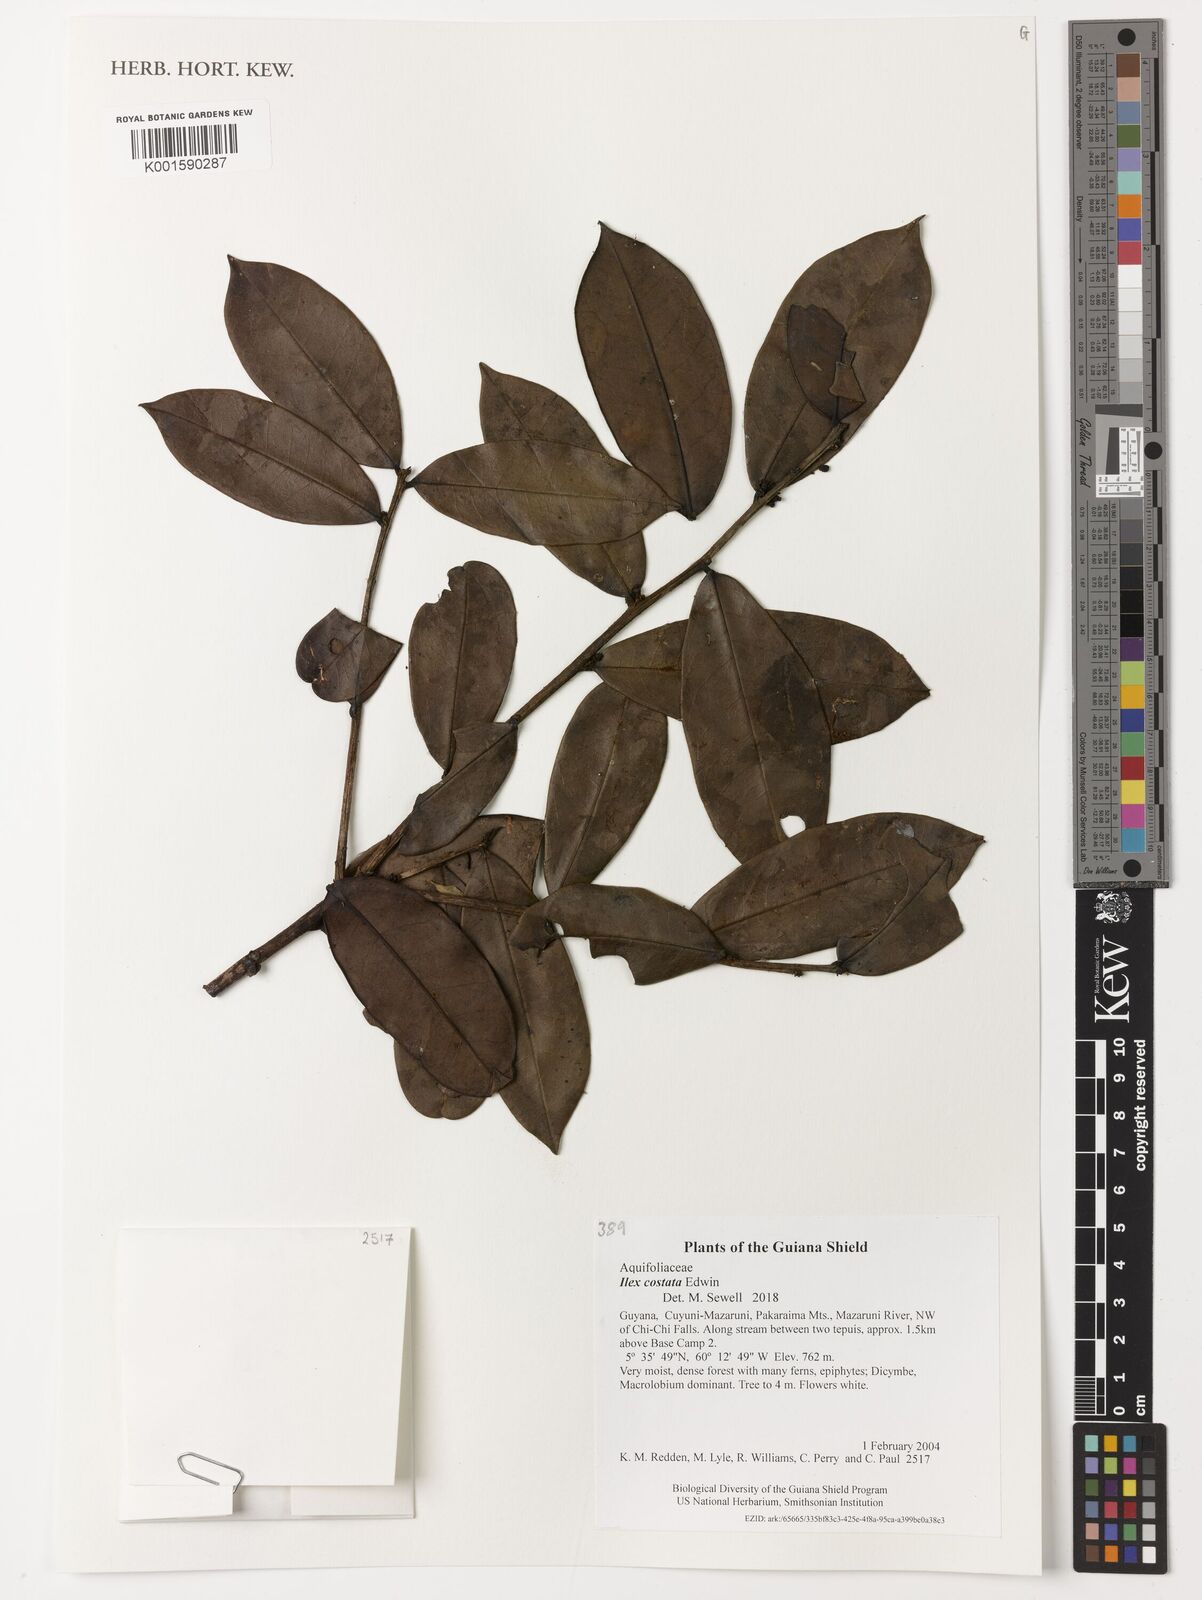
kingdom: Plantae
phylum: Tracheophyta
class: Magnoliopsida
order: Aquifoliales
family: Aquifoliaceae
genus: Ilex
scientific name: Ilex costata
